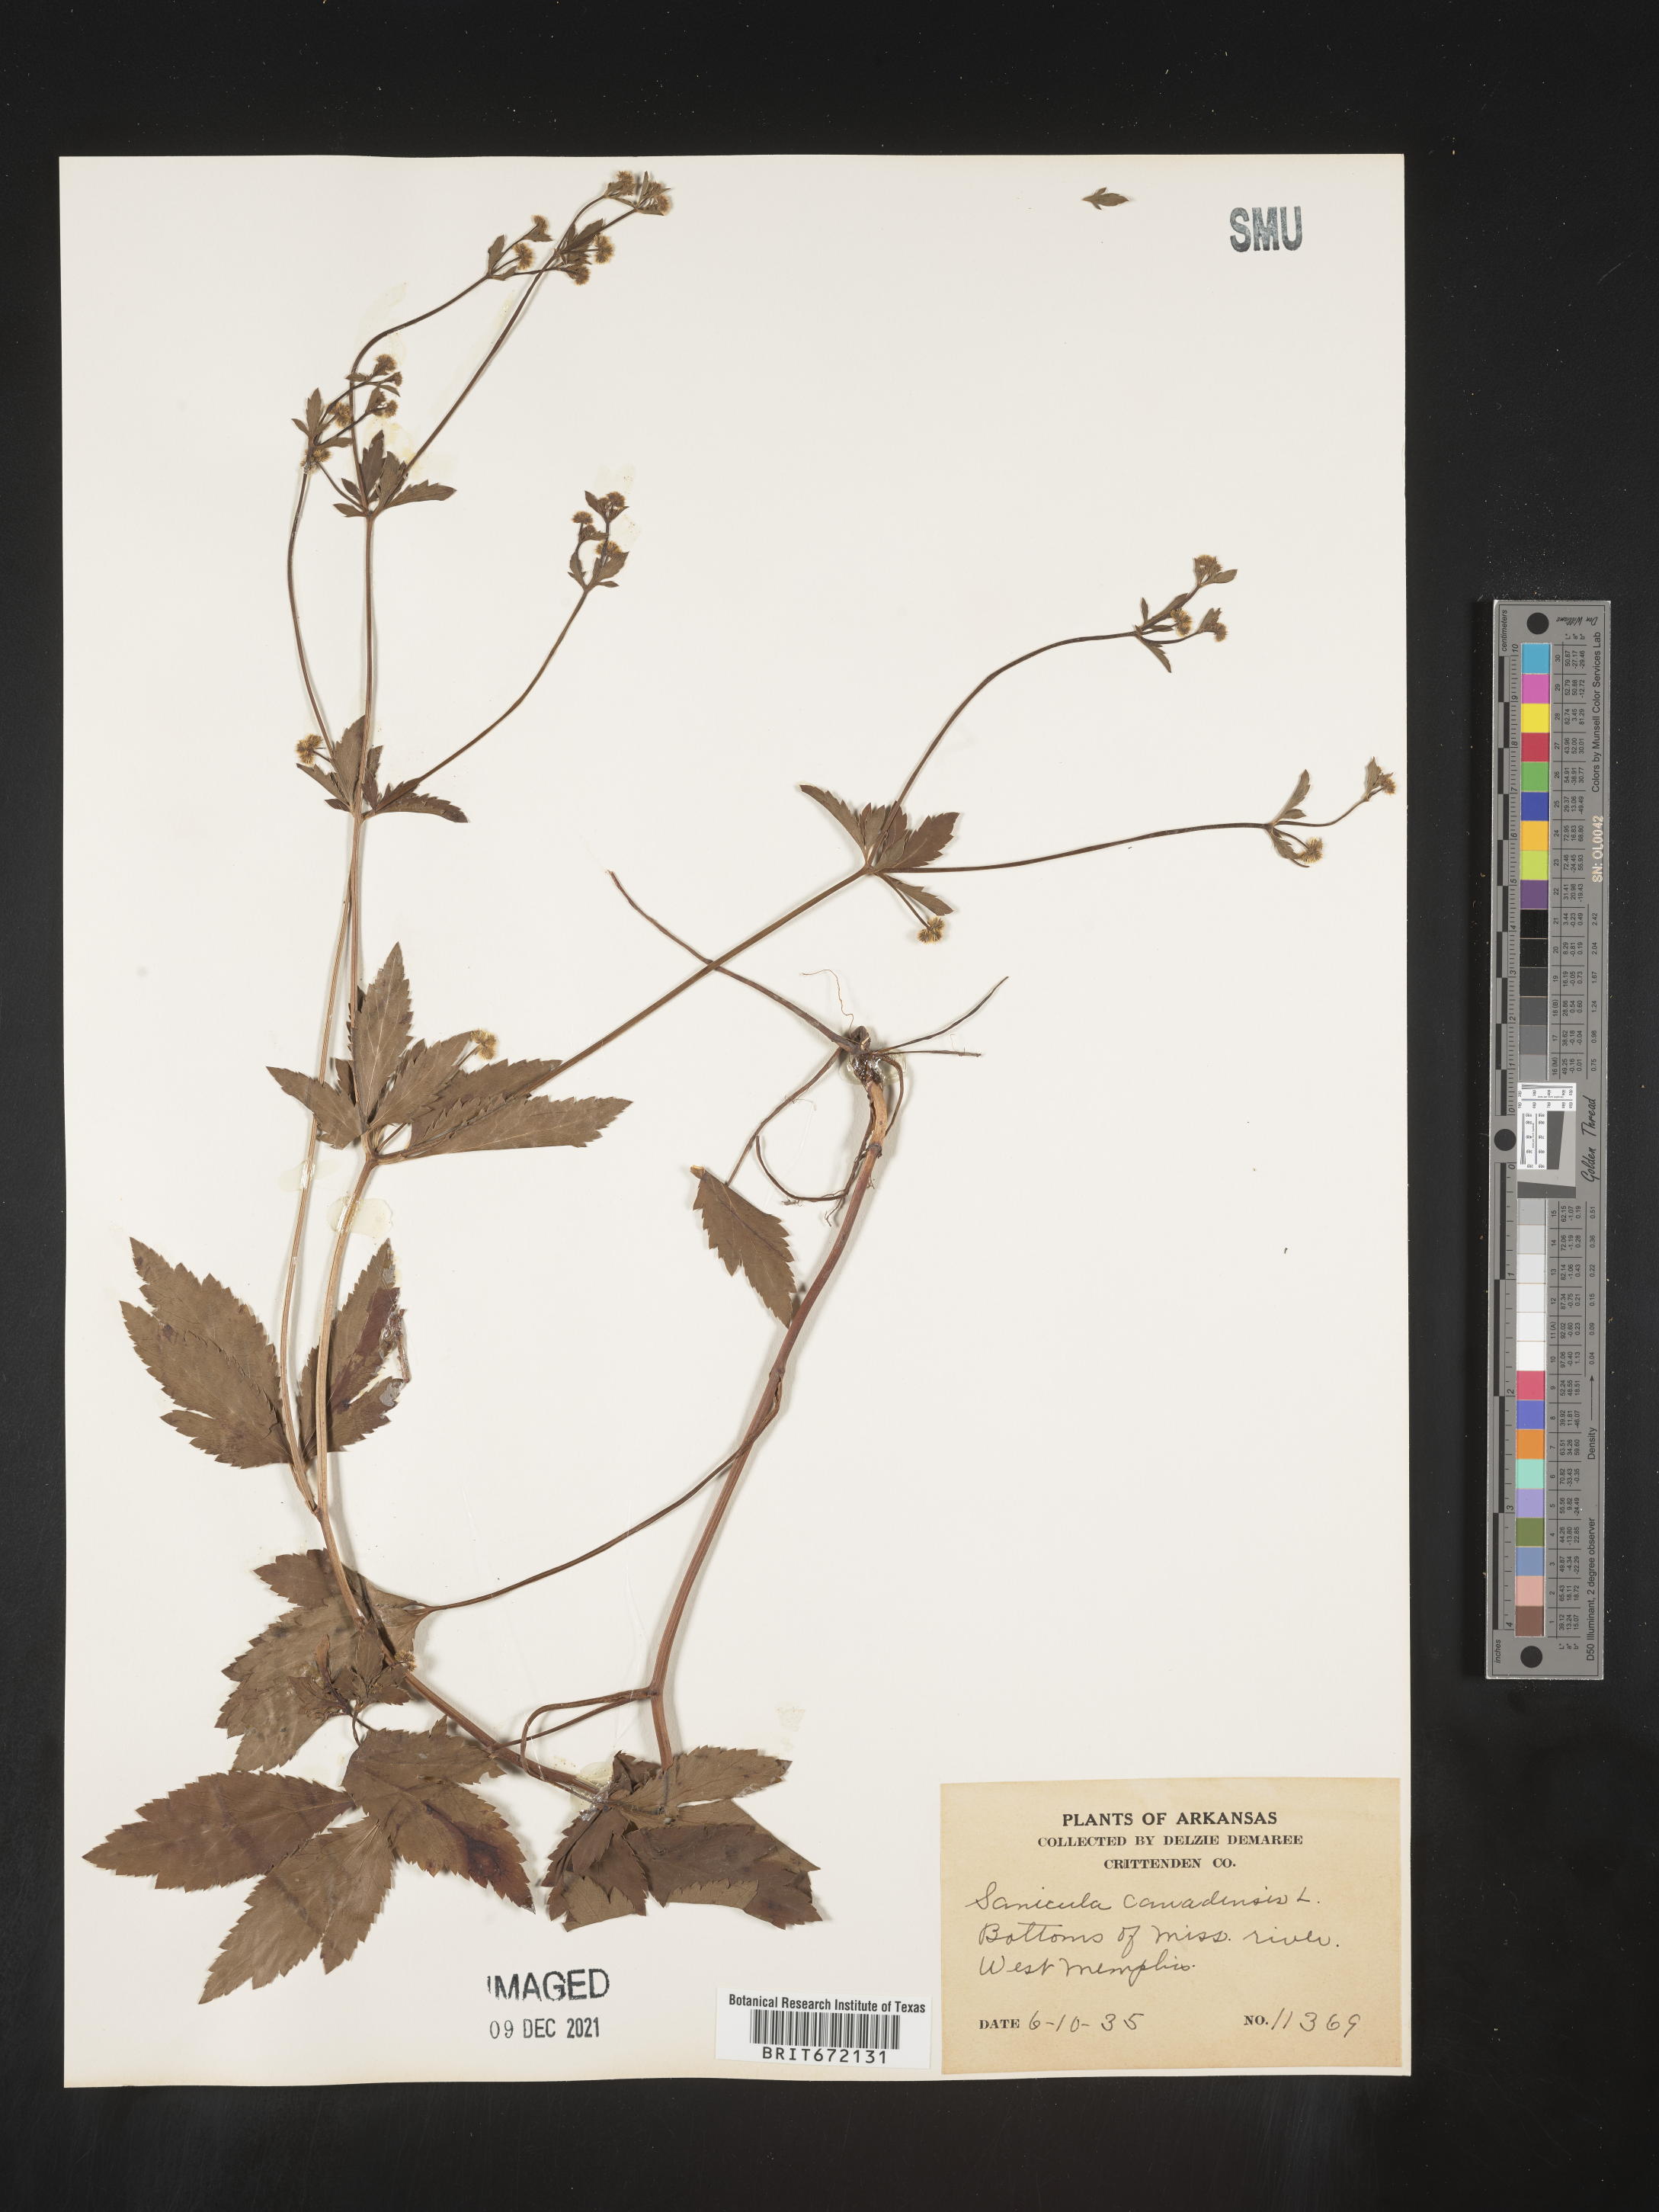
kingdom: Plantae
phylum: Tracheophyta
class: Magnoliopsida
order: Apiales
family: Apiaceae
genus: Sanicula
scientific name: Sanicula canadensis
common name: Canada sanicle
